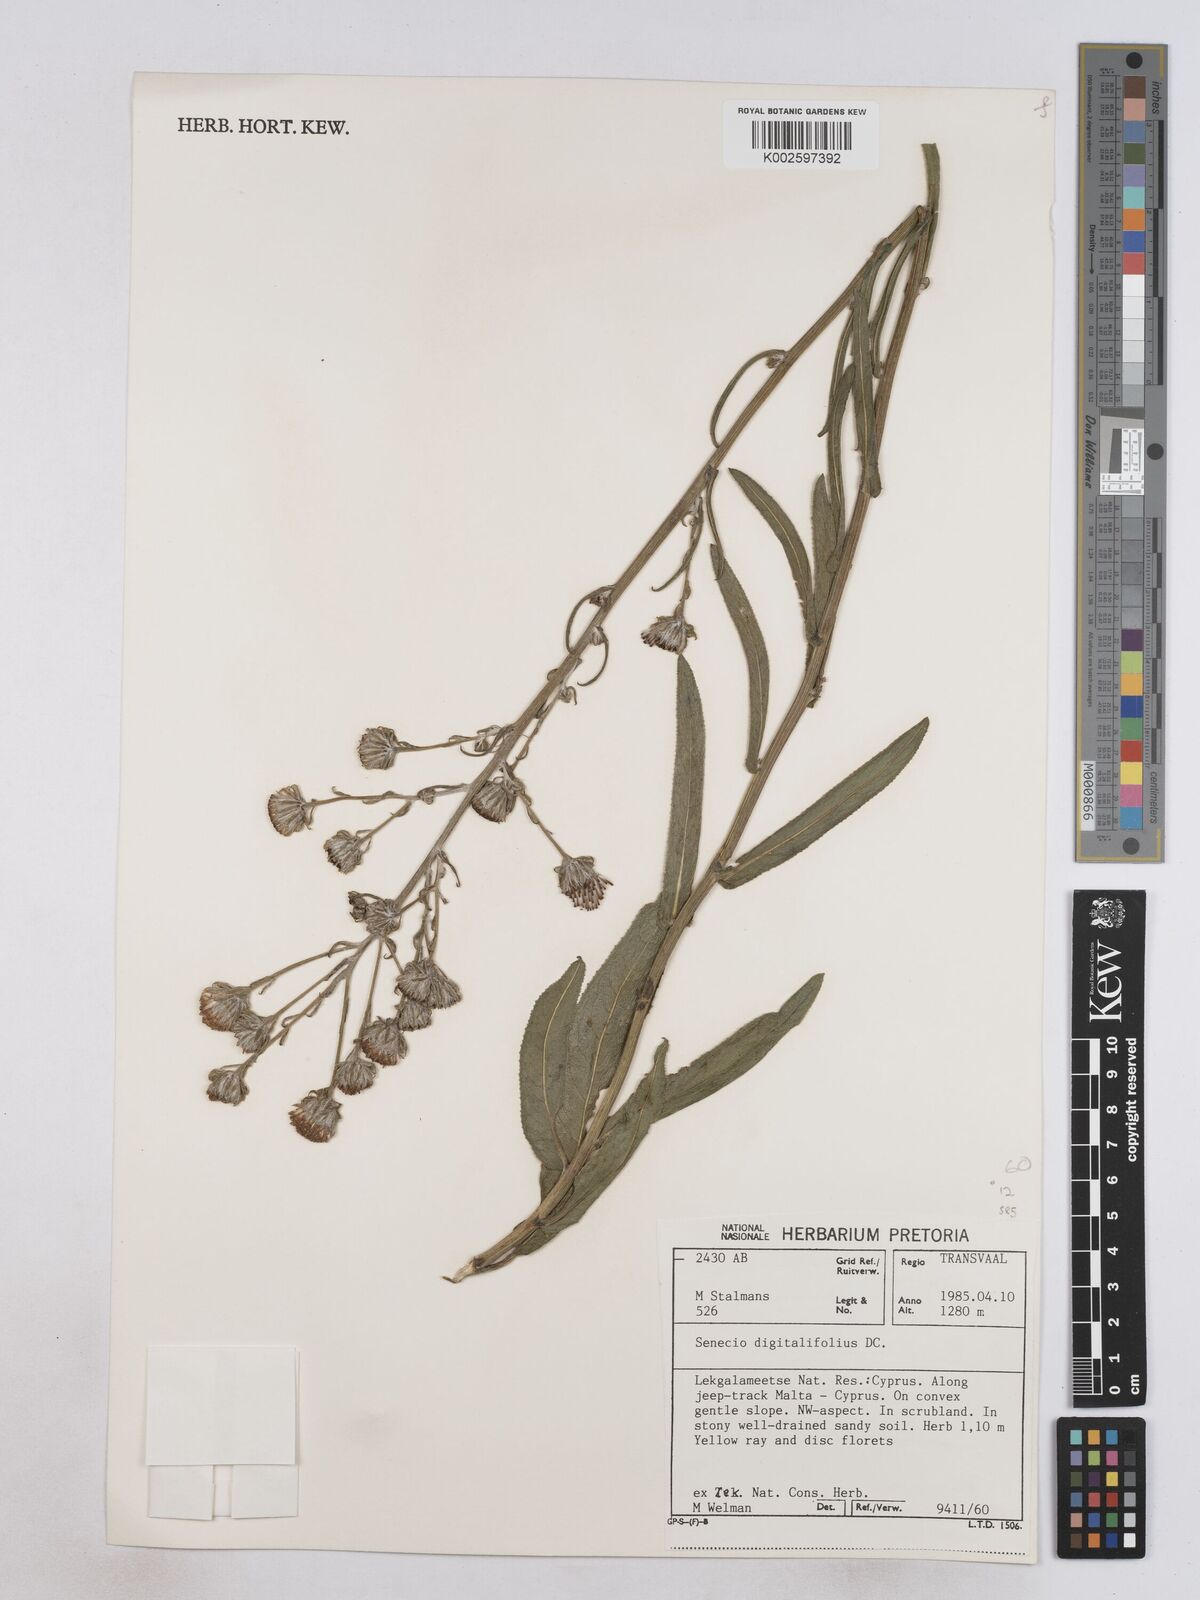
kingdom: Plantae
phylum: Tracheophyta
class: Magnoliopsida
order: Asterales
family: Asteraceae
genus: Senecio
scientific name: Senecio digitalifolius
